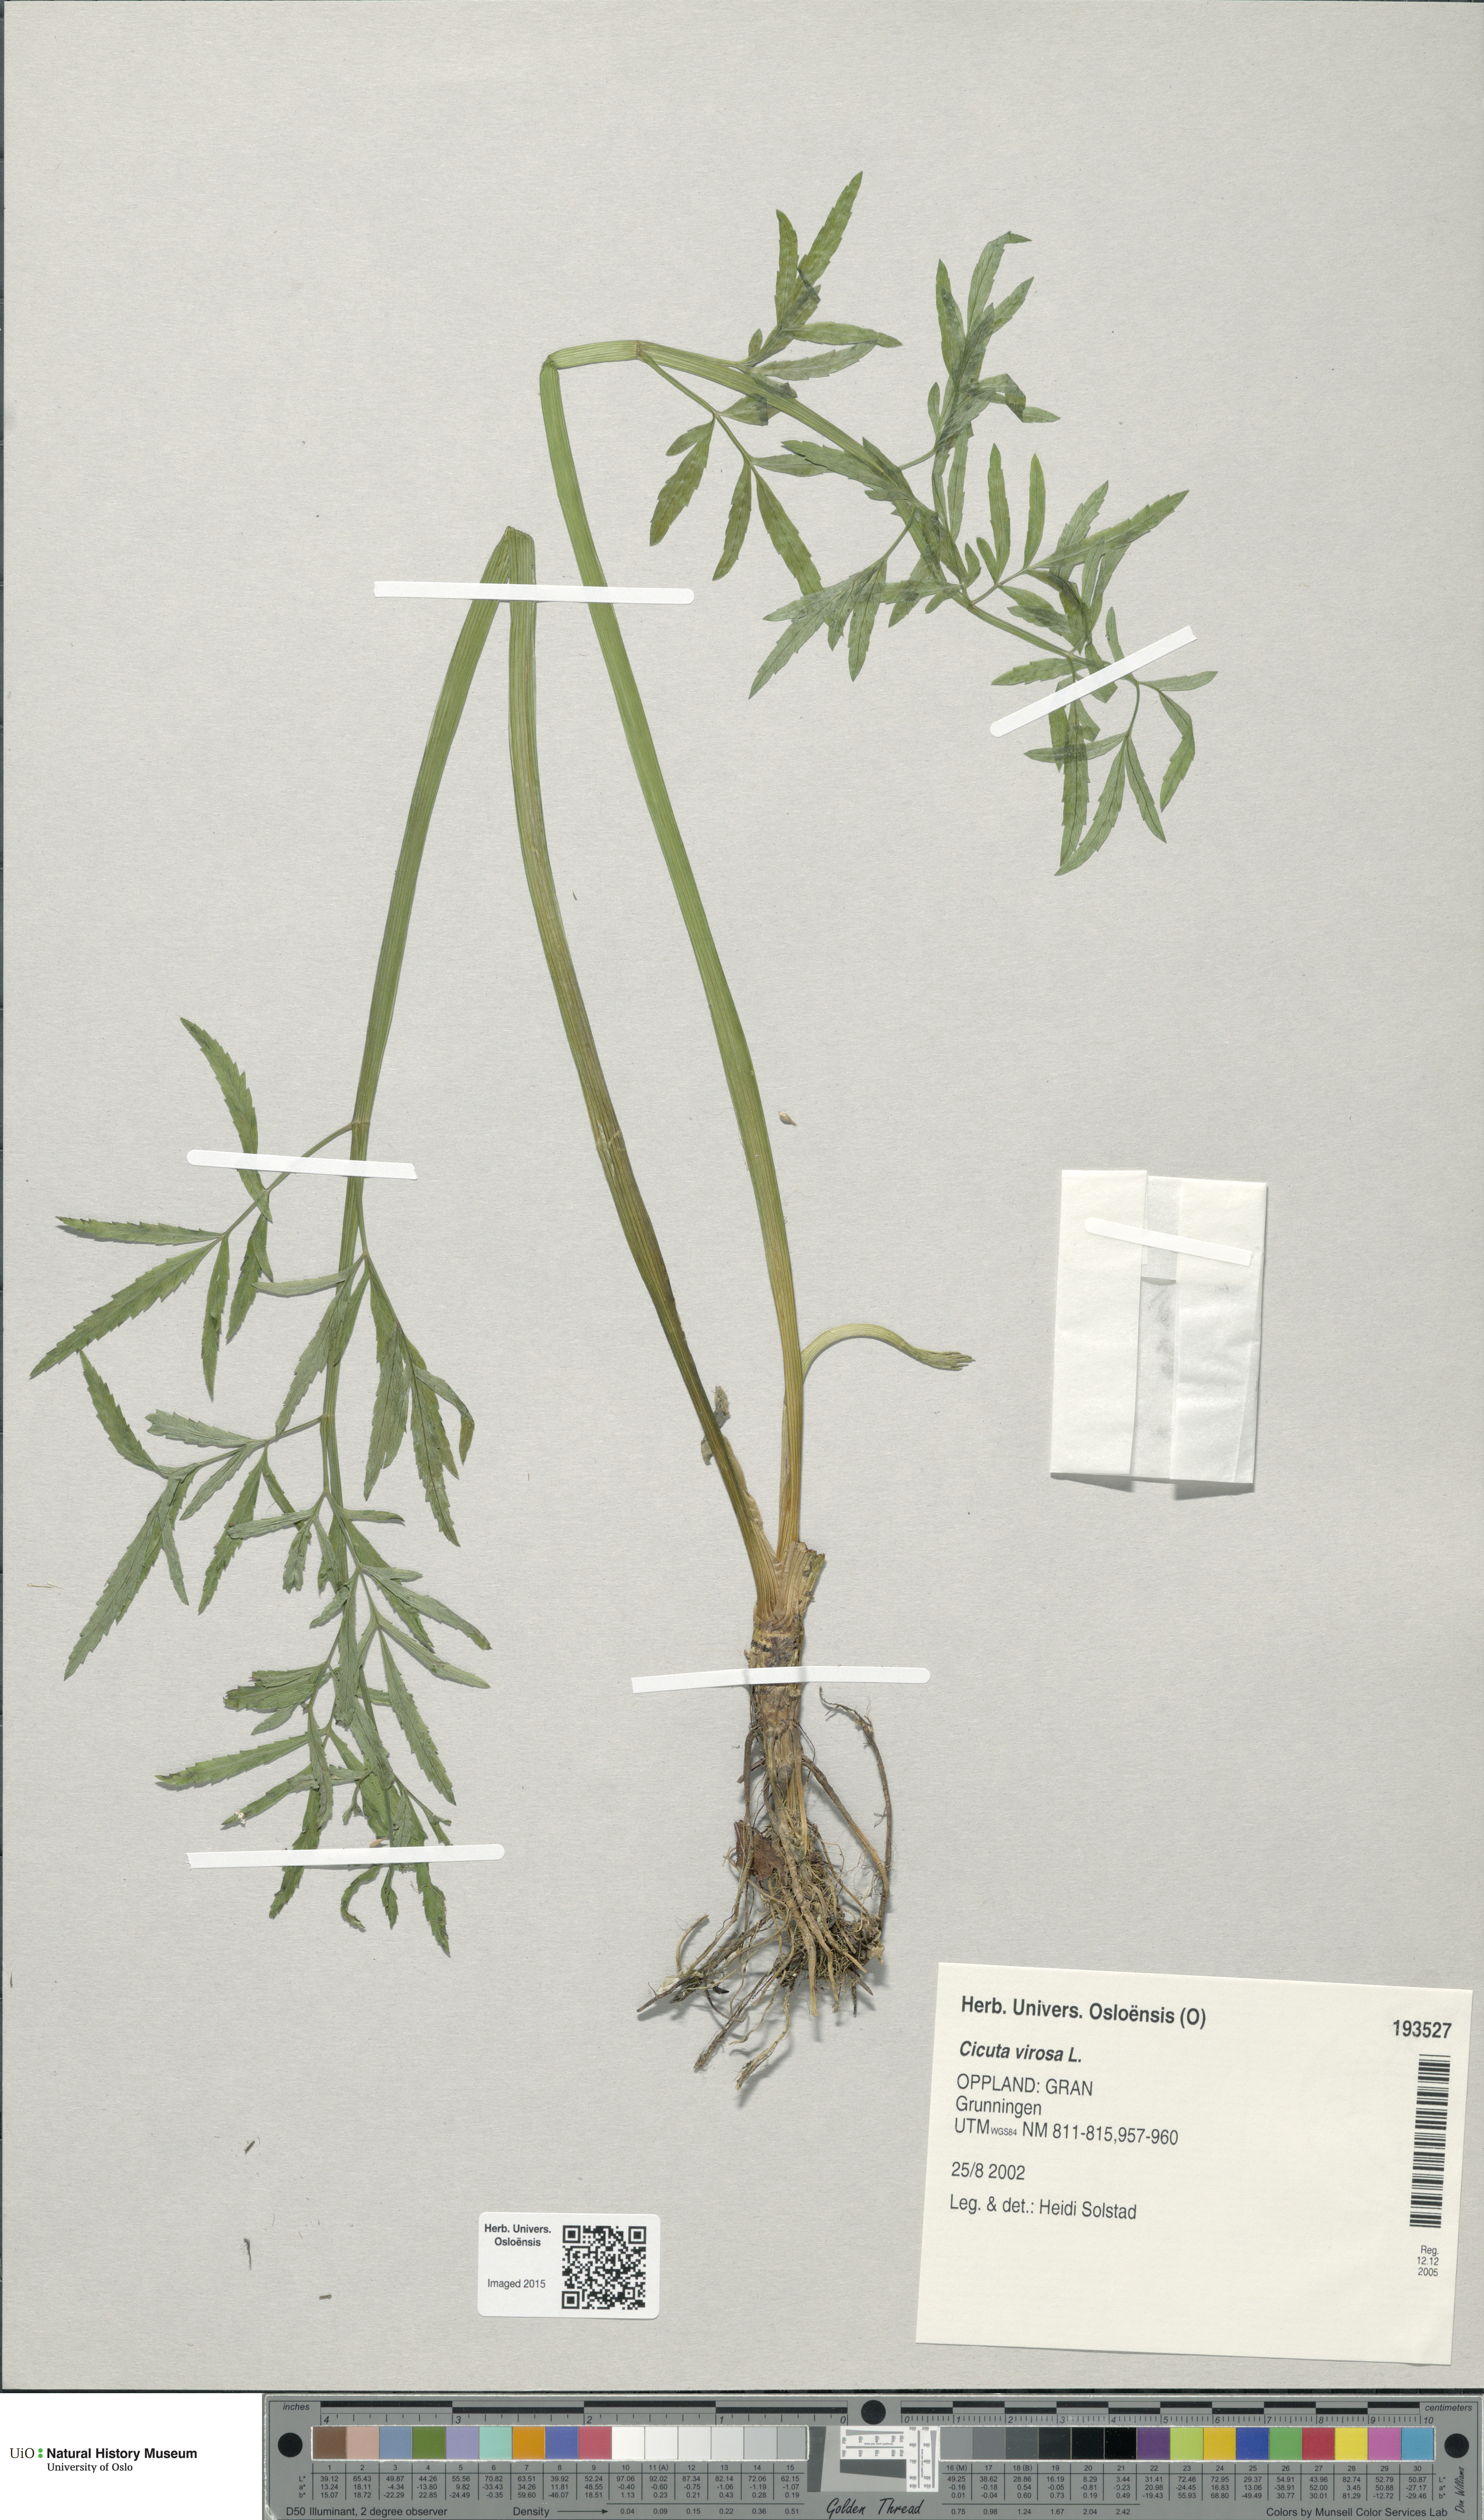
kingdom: Plantae
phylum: Tracheophyta
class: Magnoliopsida
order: Apiales
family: Apiaceae
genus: Cicuta
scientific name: Cicuta virosa
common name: Cowbane
